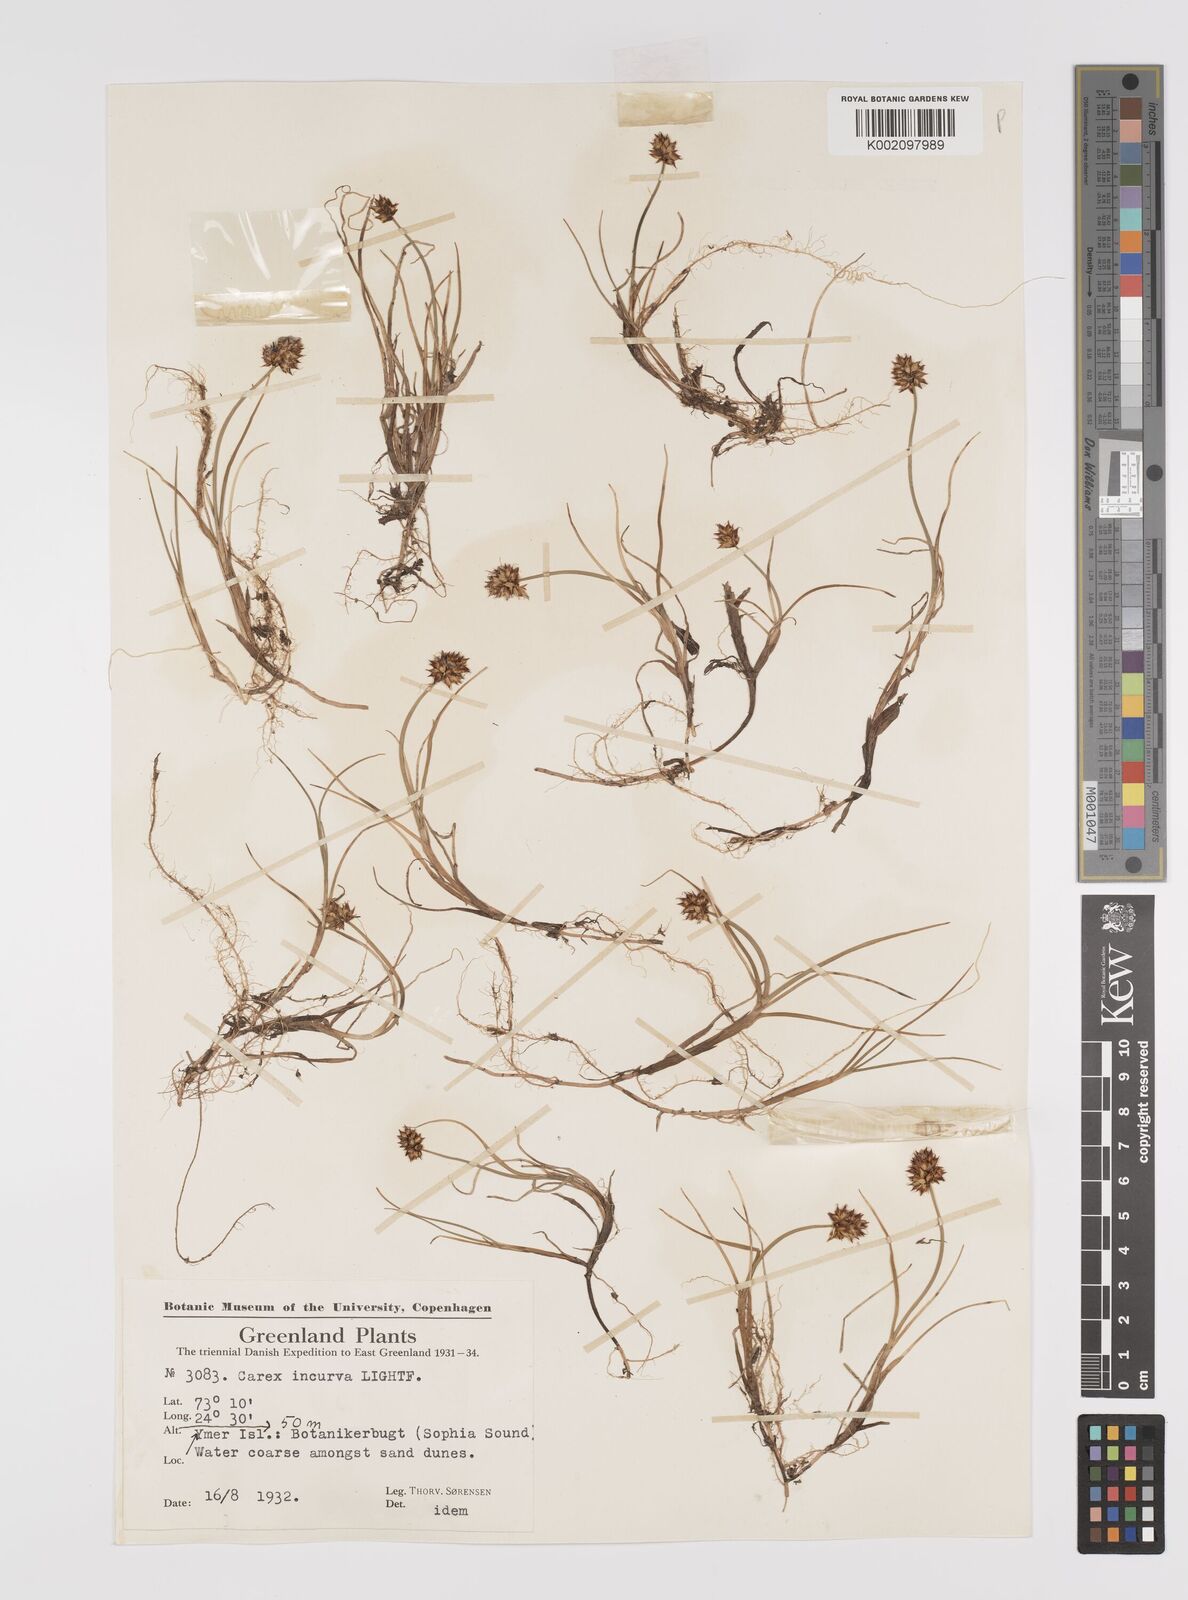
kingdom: Plantae
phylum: Tracheophyta
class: Liliopsida
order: Poales
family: Cyperaceae
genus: Carex
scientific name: Carex maritima
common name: Curved sedge
